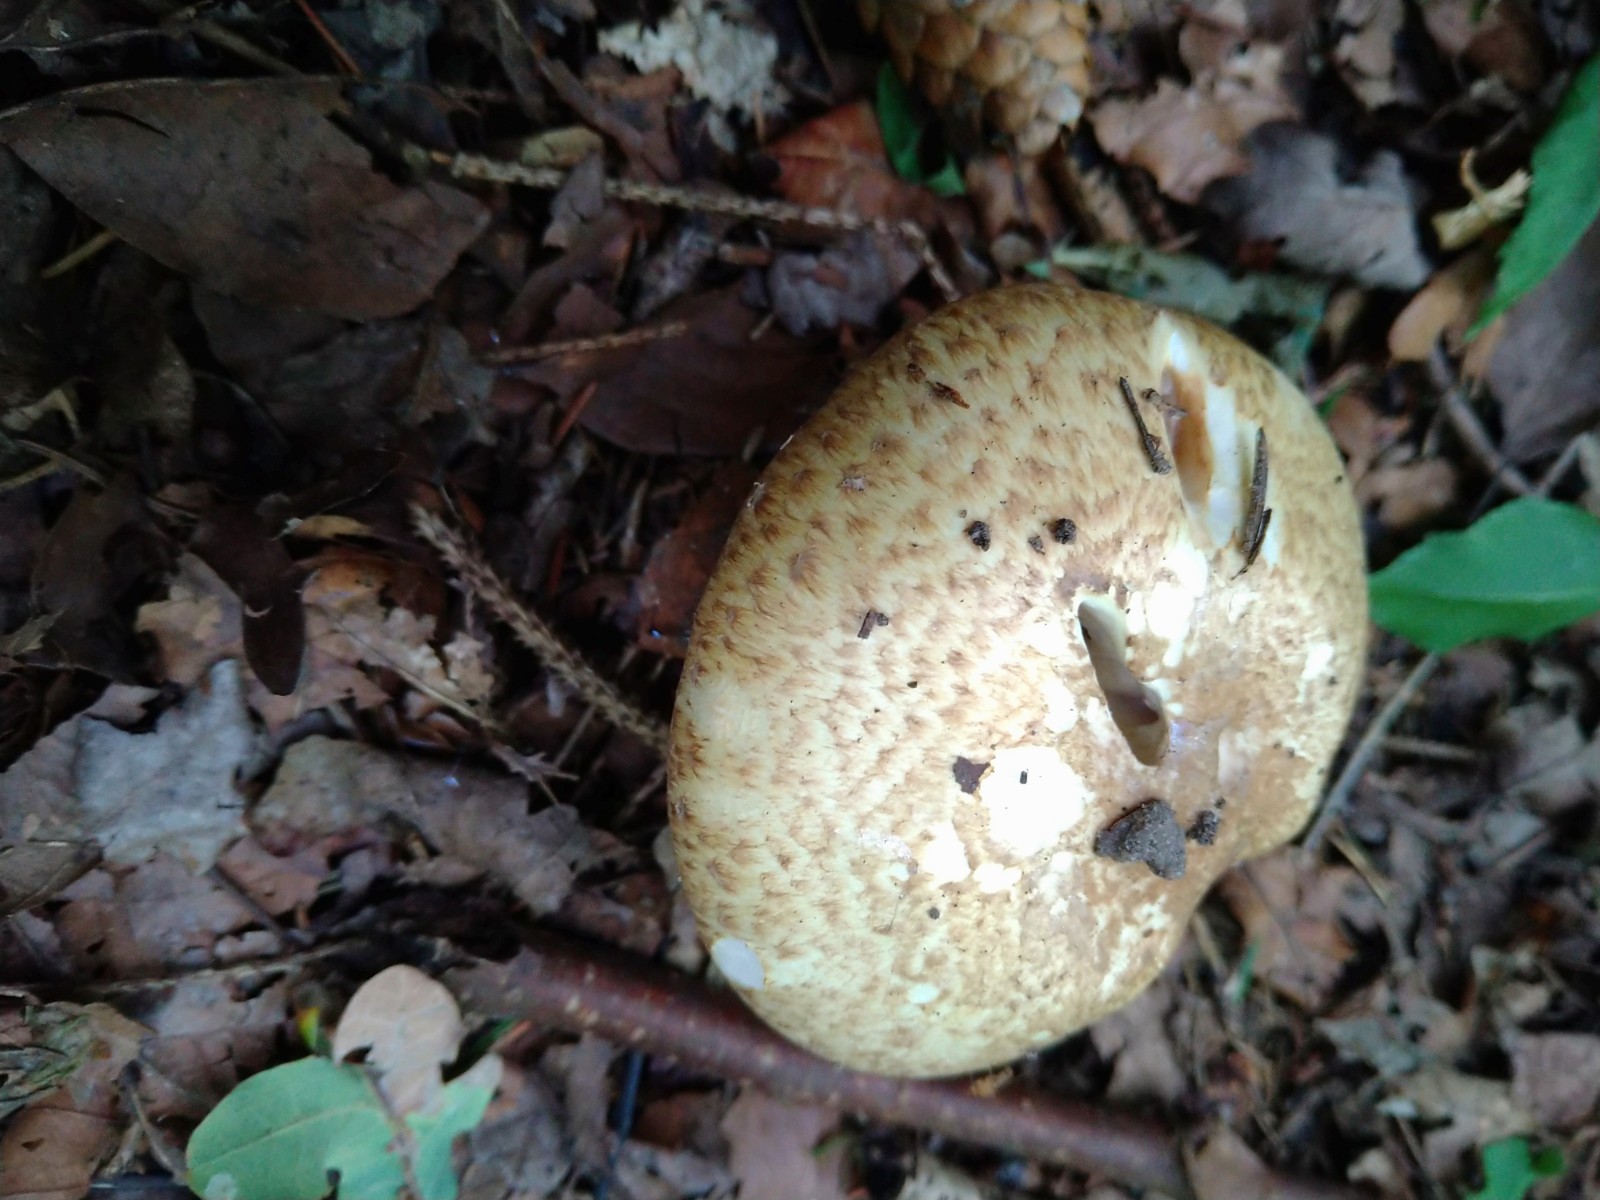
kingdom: Fungi
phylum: Basidiomycota
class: Agaricomycetes
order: Agaricales
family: Agaricaceae
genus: Agaricus
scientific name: Agaricus augustus
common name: prægtig champignon
